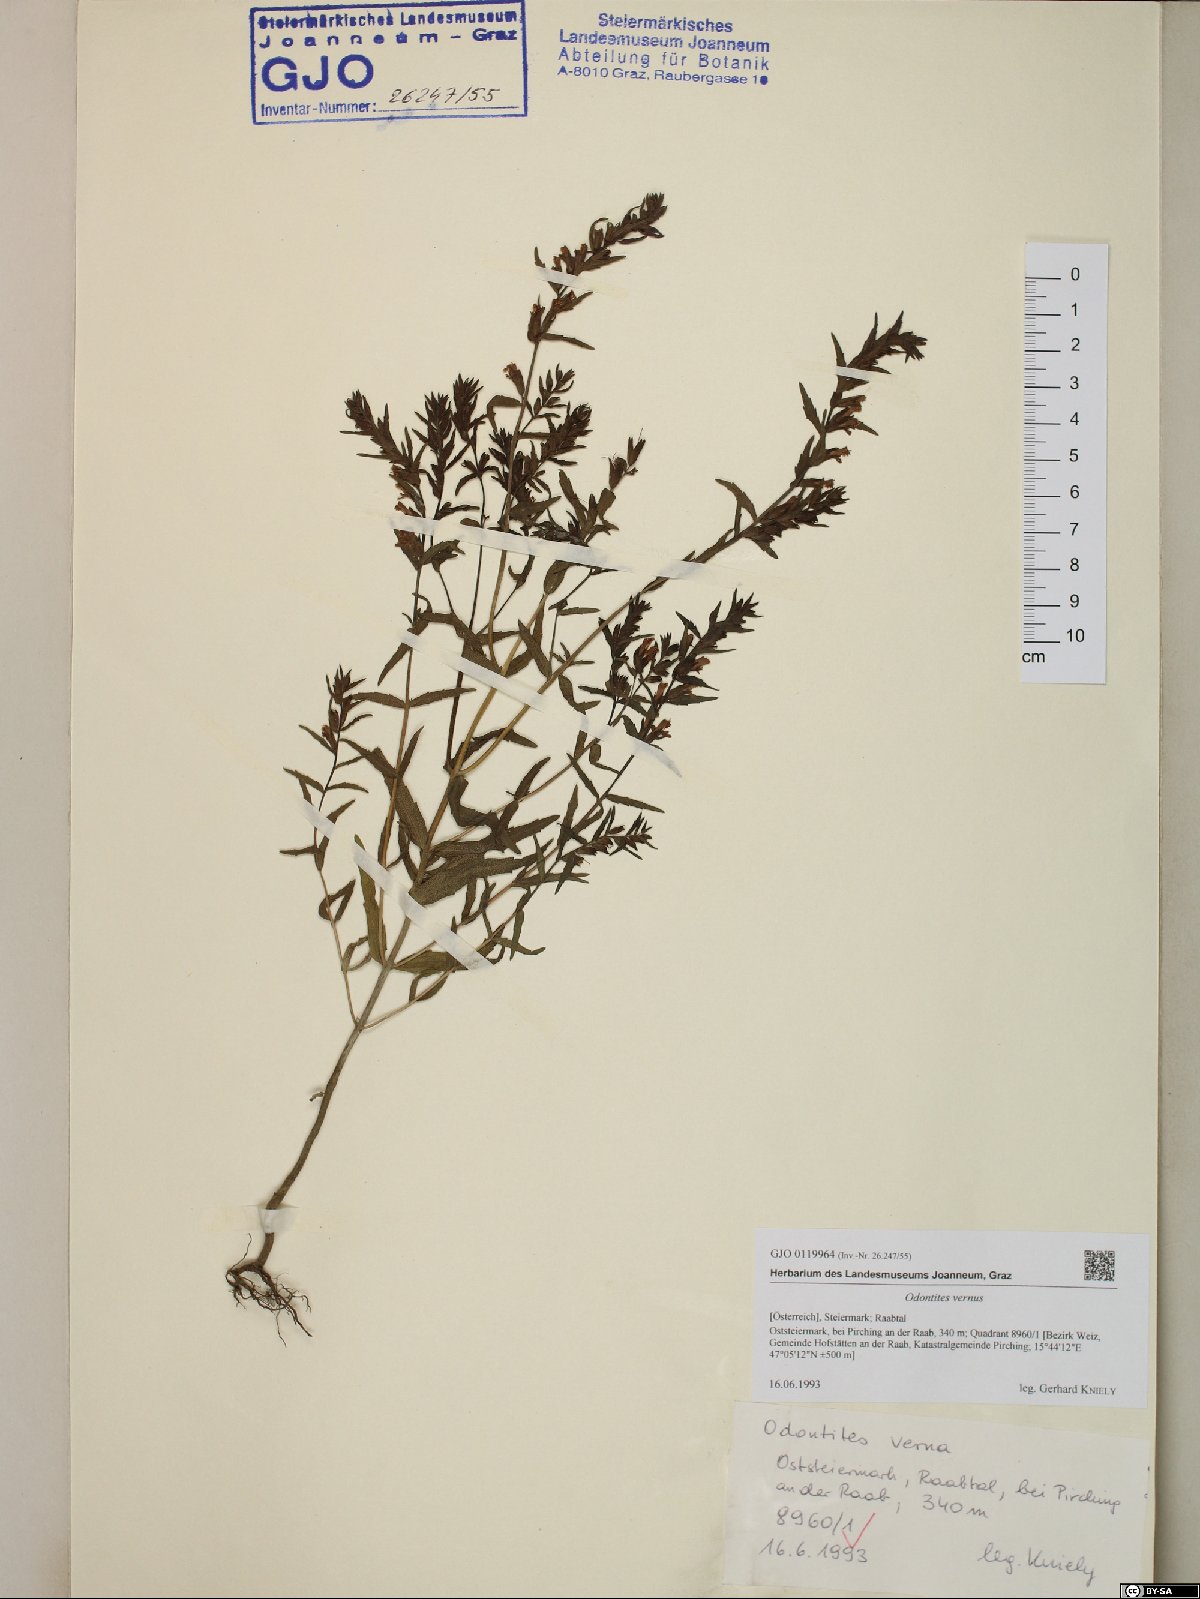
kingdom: Plantae
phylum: Tracheophyta
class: Magnoliopsida
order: Lamiales
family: Orobanchaceae
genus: Odontites
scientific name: Odontites vernus
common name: Red bartsia
